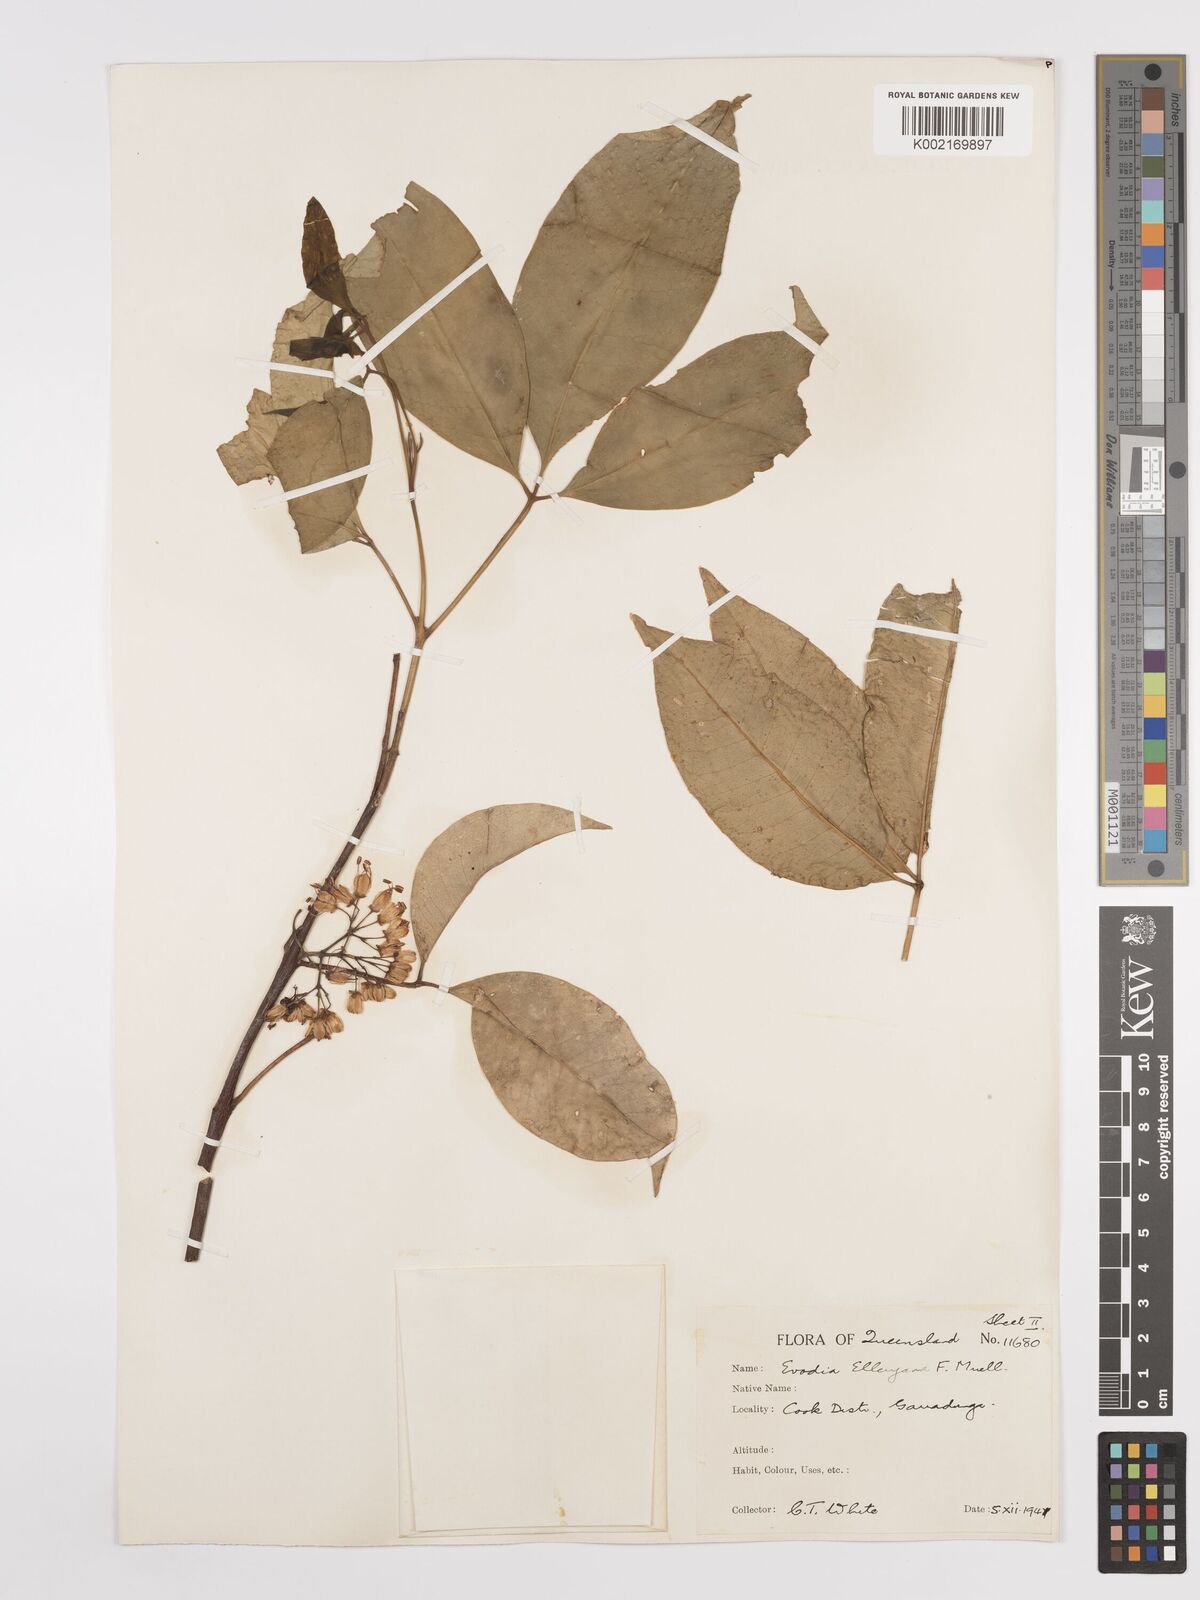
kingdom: Plantae
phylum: Tracheophyta
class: Magnoliopsida
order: Sapindales
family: Rutaceae
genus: Melicope
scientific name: Melicope accedens
